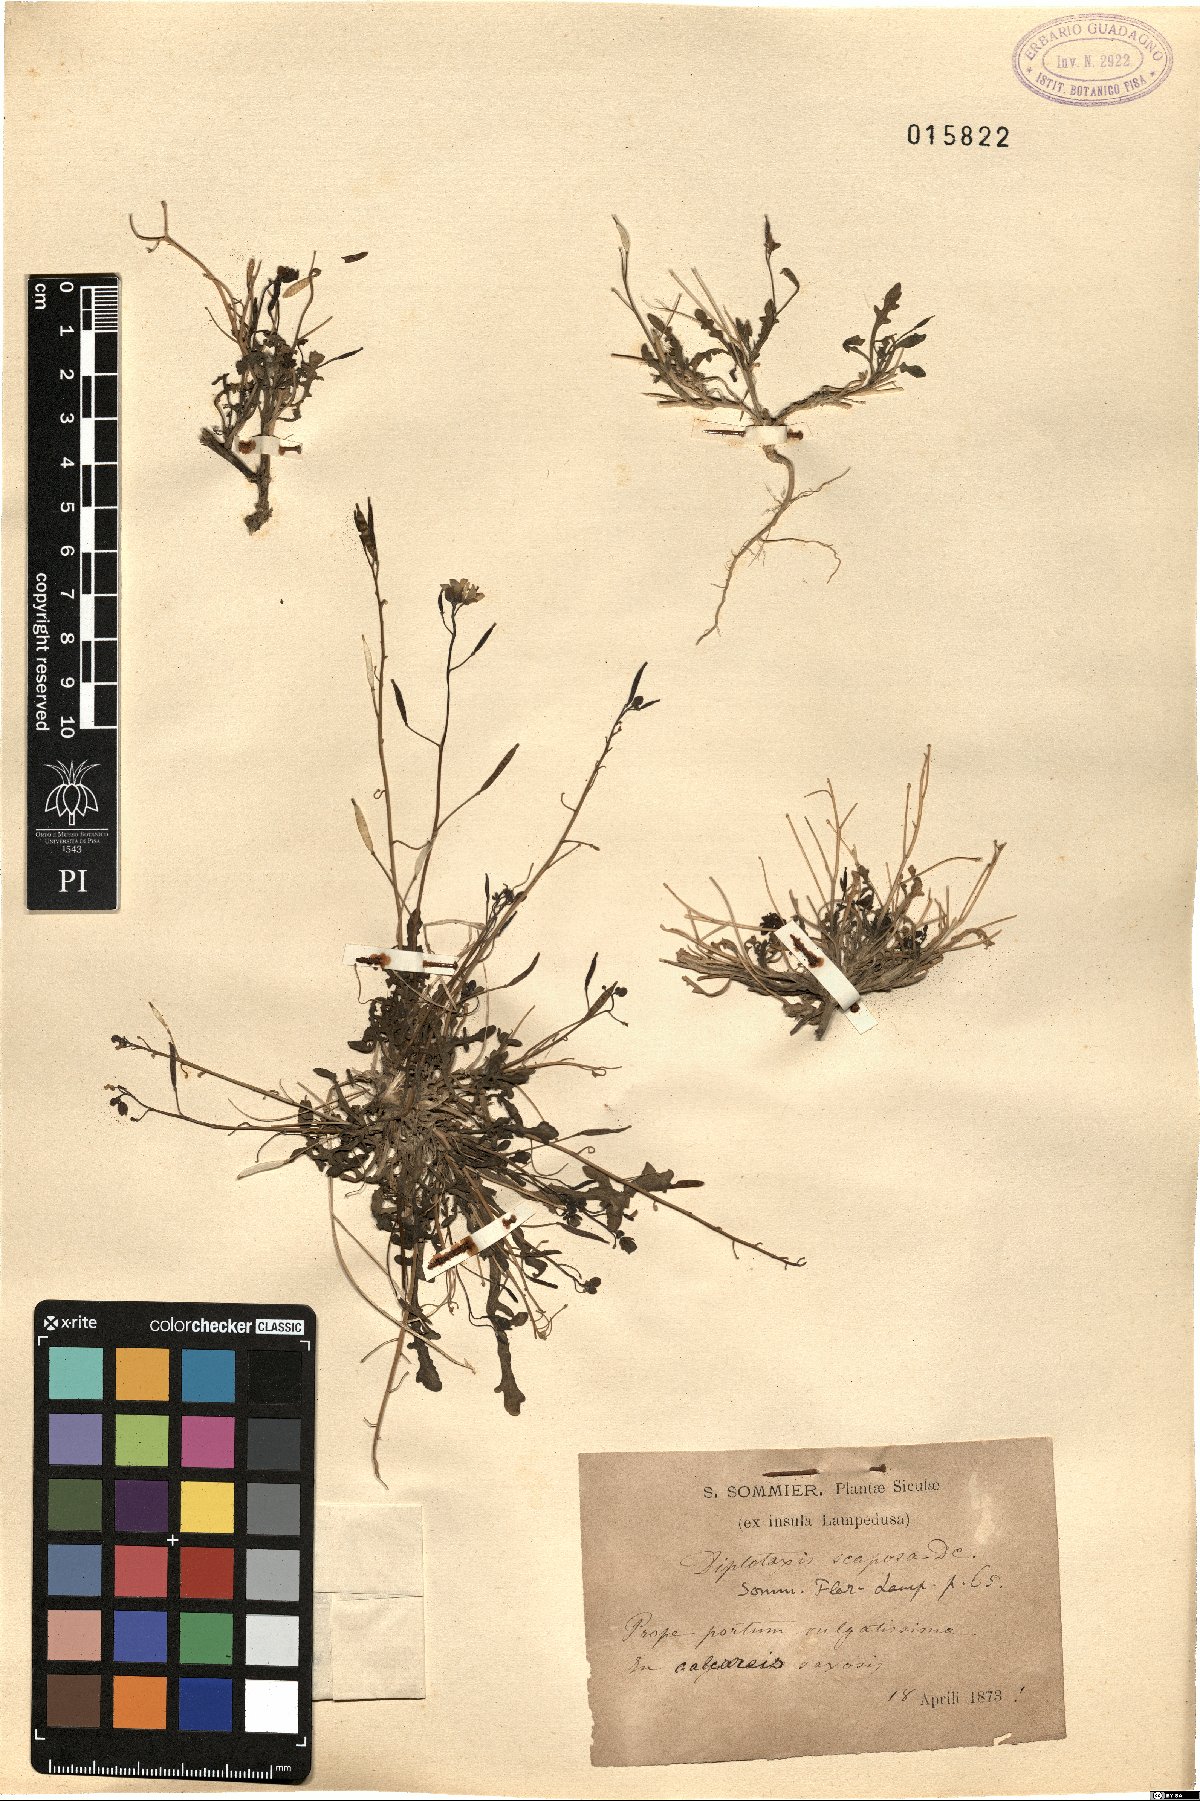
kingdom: Plantae
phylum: Tracheophyta
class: Magnoliopsida
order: Brassicales
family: Brassicaceae
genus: Diplotaxis
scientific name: Diplotaxis scaposa
